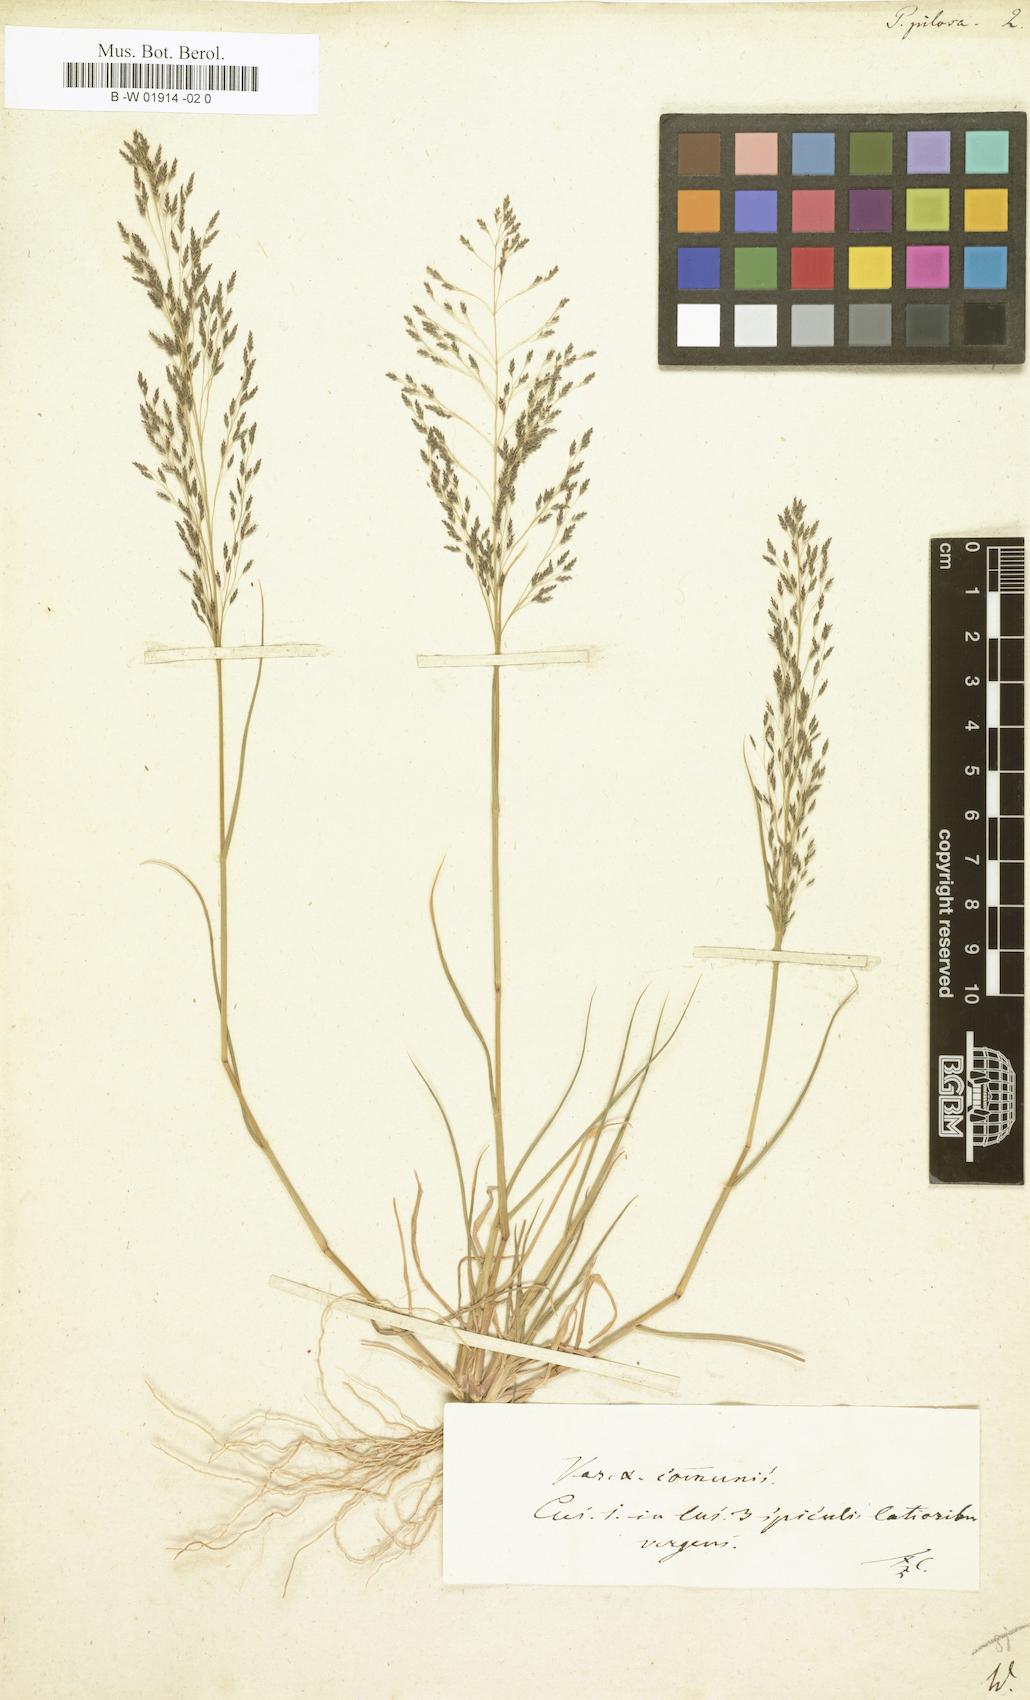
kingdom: Plantae
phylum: Tracheophyta
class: Liliopsida
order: Poales
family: Poaceae
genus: Eragrostis
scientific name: Eragrostis
